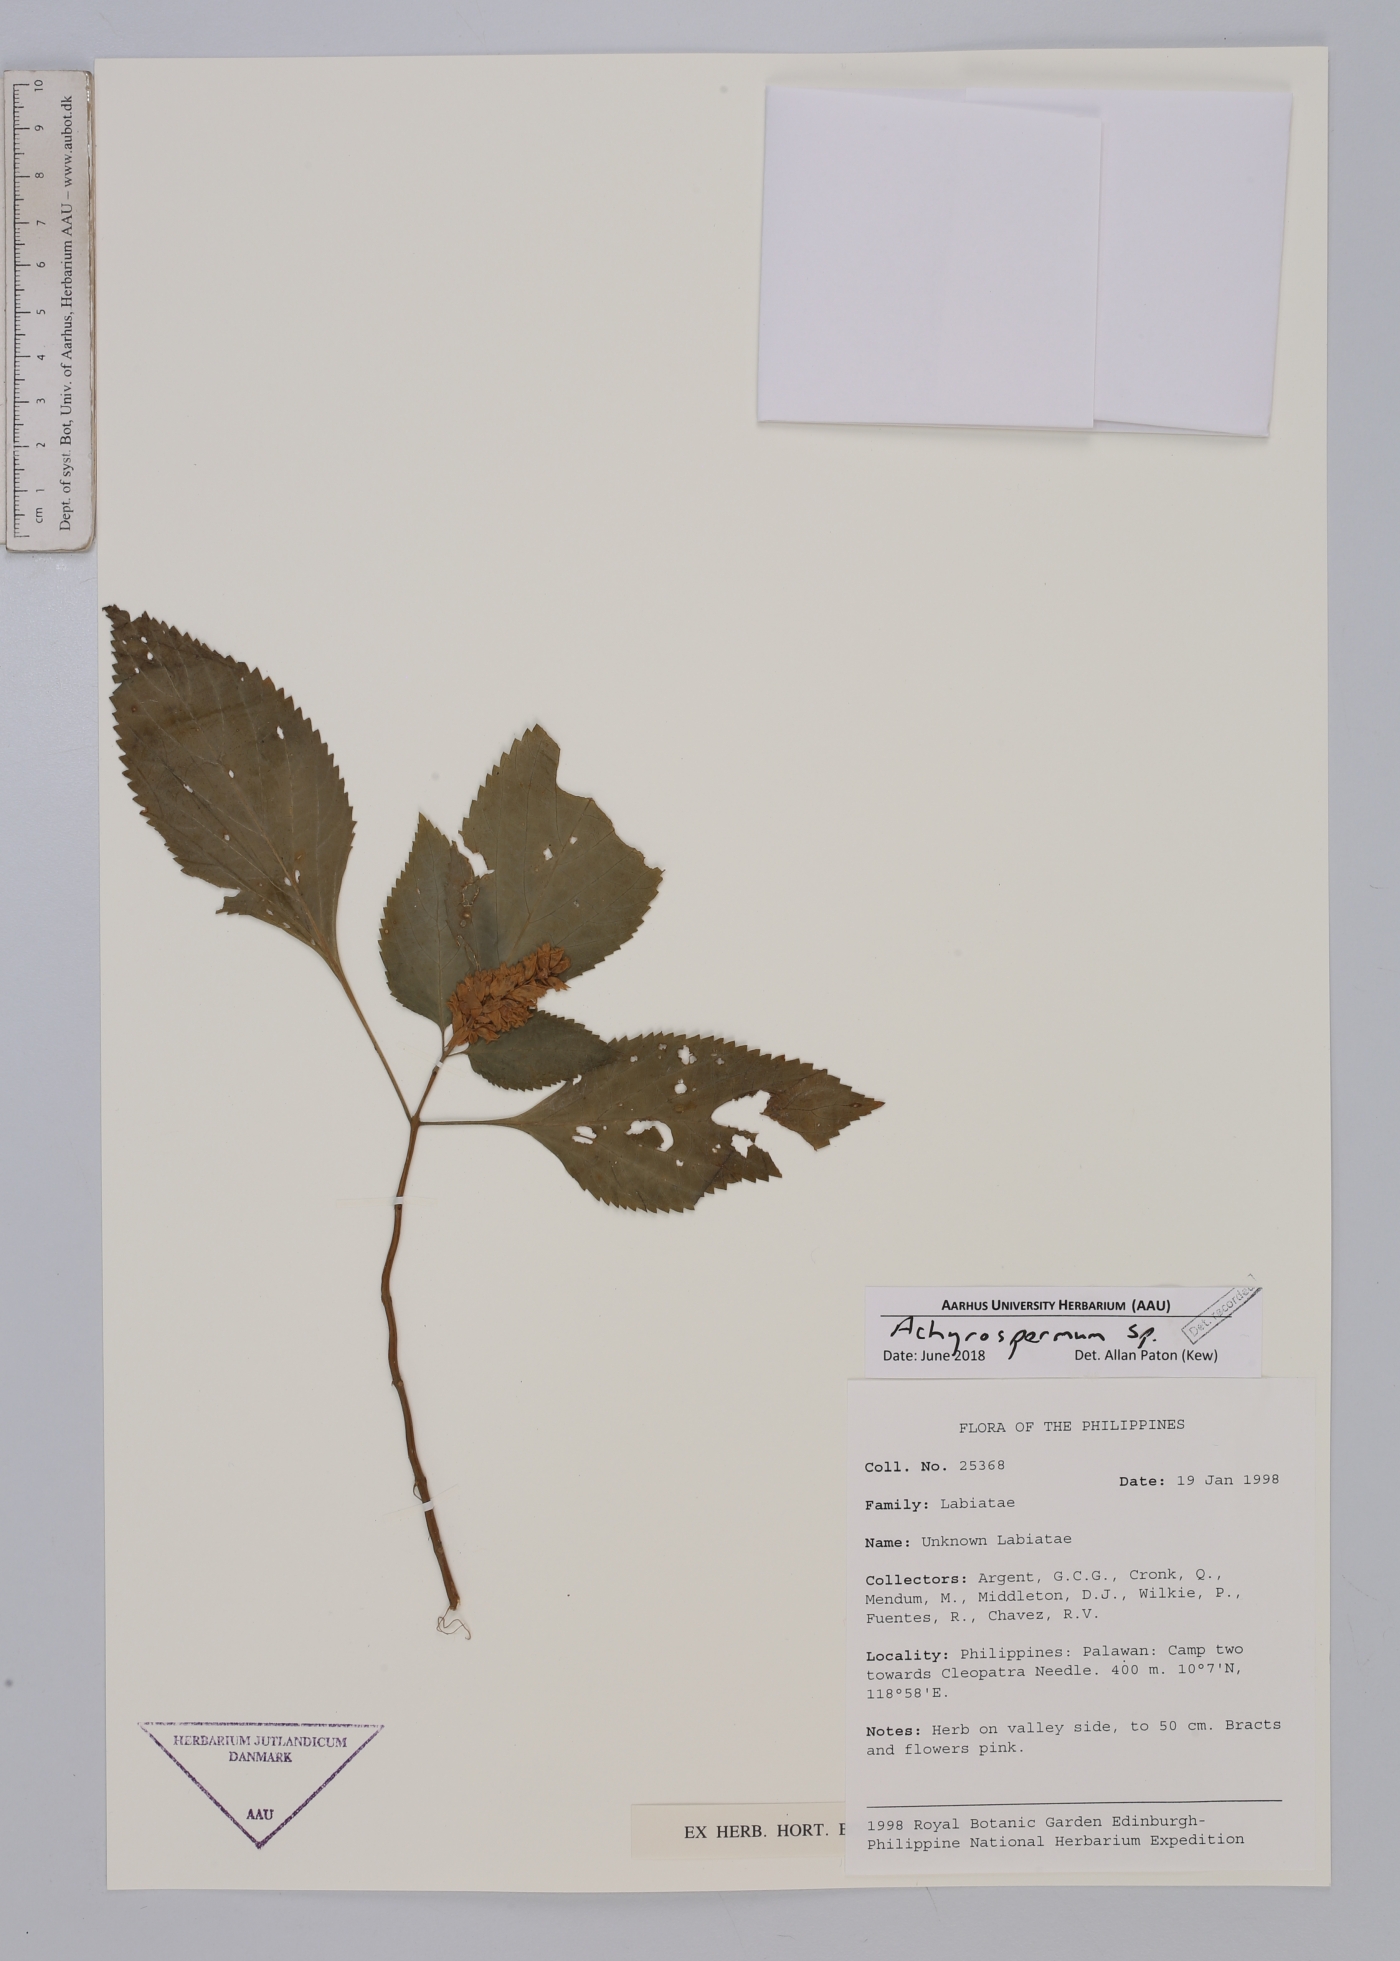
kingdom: Plantae
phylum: Tracheophyta
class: Magnoliopsida
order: Lamiales
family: Lamiaceae
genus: Achyrospermum
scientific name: Achyrospermum
